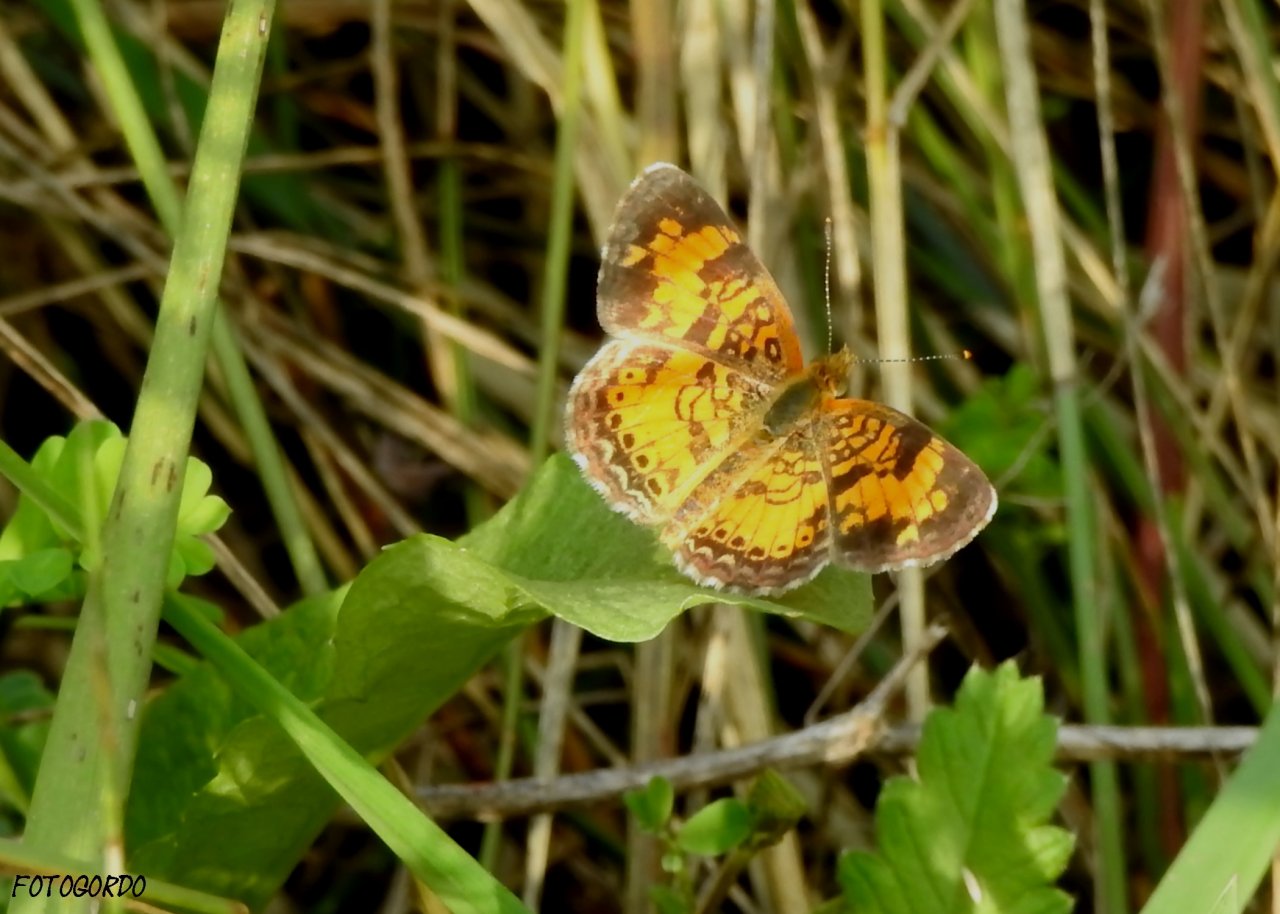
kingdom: Animalia
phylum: Arthropoda
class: Insecta
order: Lepidoptera
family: Nymphalidae
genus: Phyciodes
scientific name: Phyciodes tharos
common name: Northern Crescent
